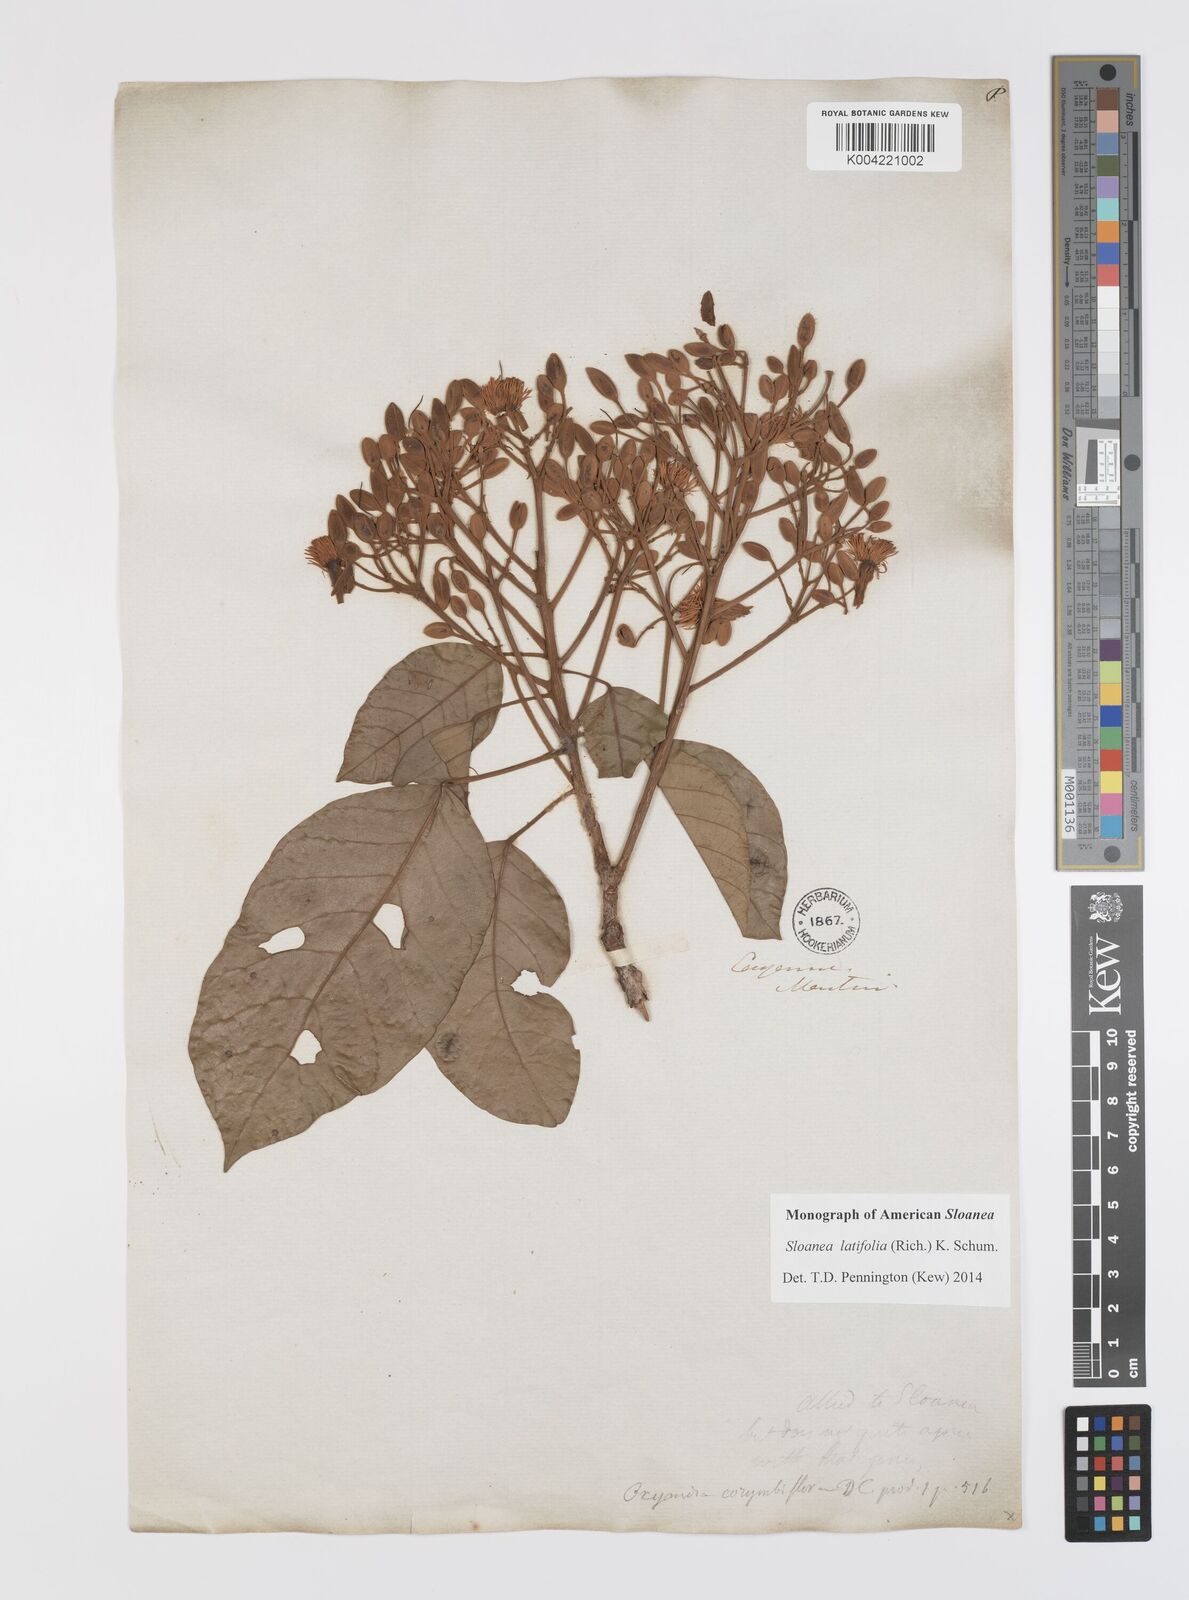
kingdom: Plantae
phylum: Tracheophyta
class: Magnoliopsida
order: Oxalidales
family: Elaeocarpaceae
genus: Sloanea
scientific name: Sloanea latifolia
